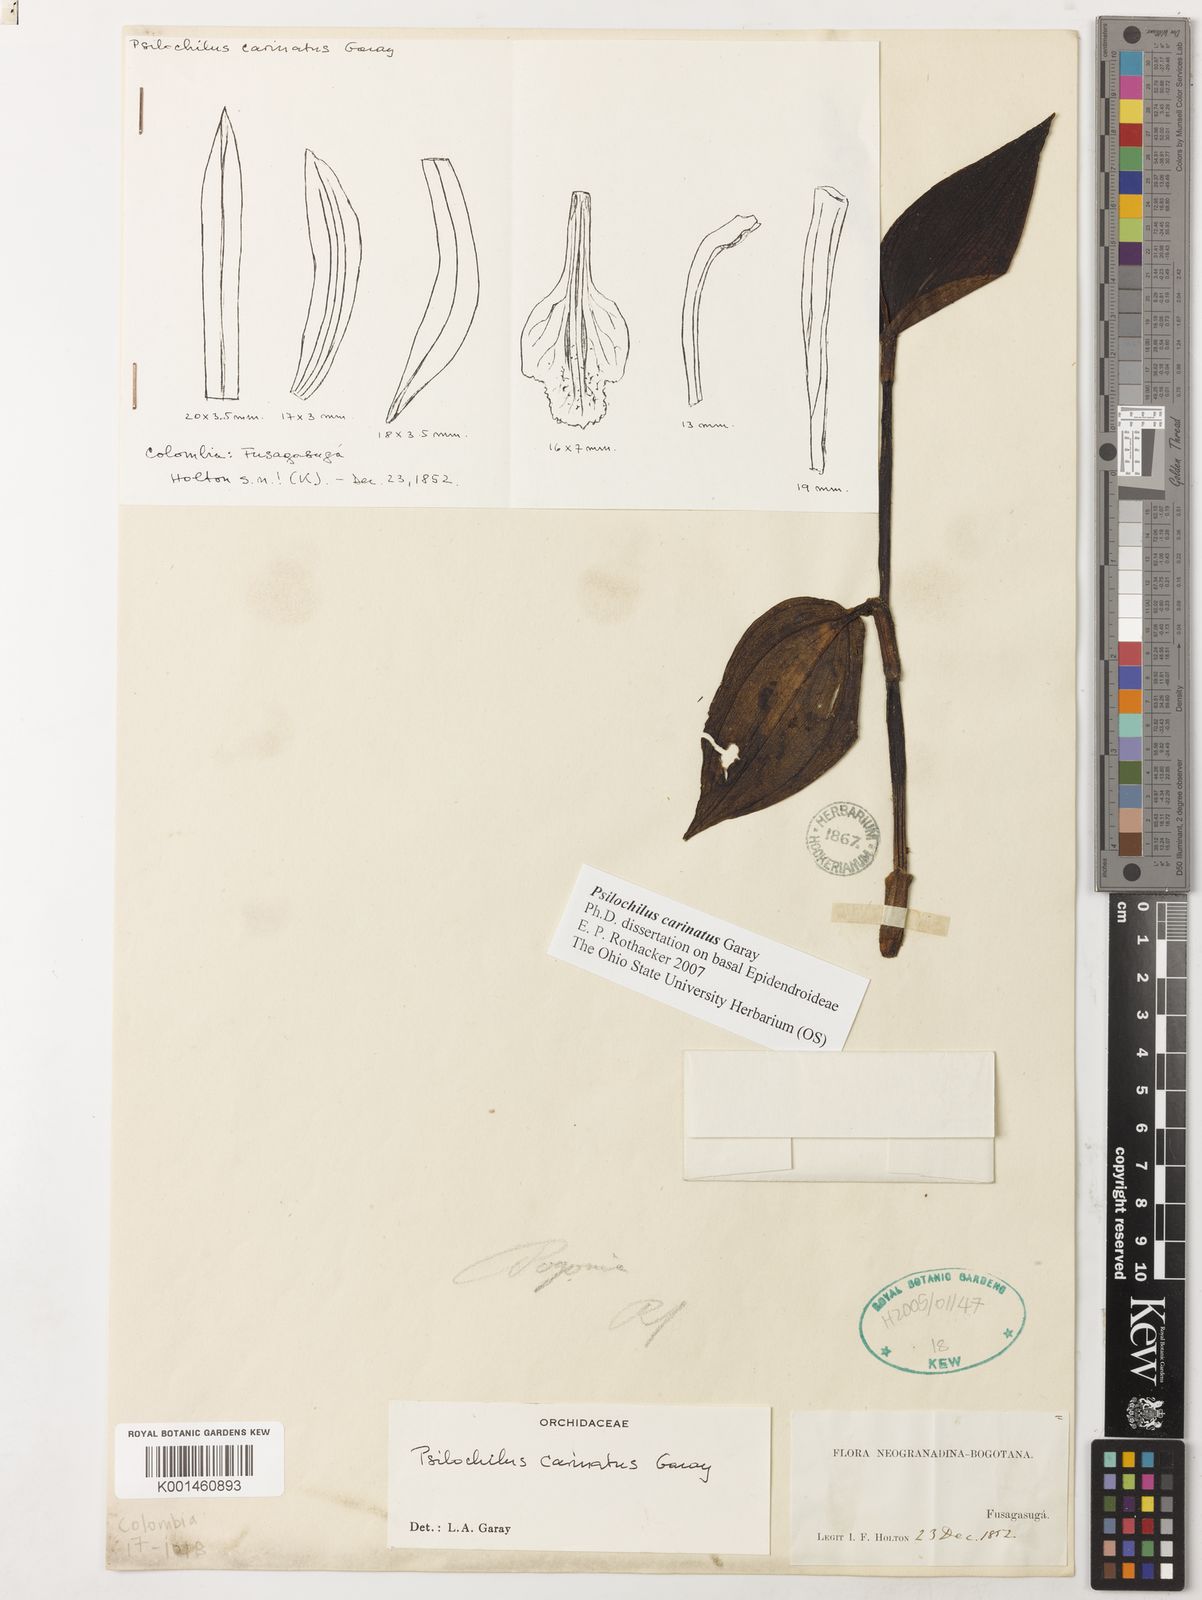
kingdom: Plantae
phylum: Tracheophyta
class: Liliopsida
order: Asparagales
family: Orchidaceae
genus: Psilochilus
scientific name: Psilochilus carinatus
